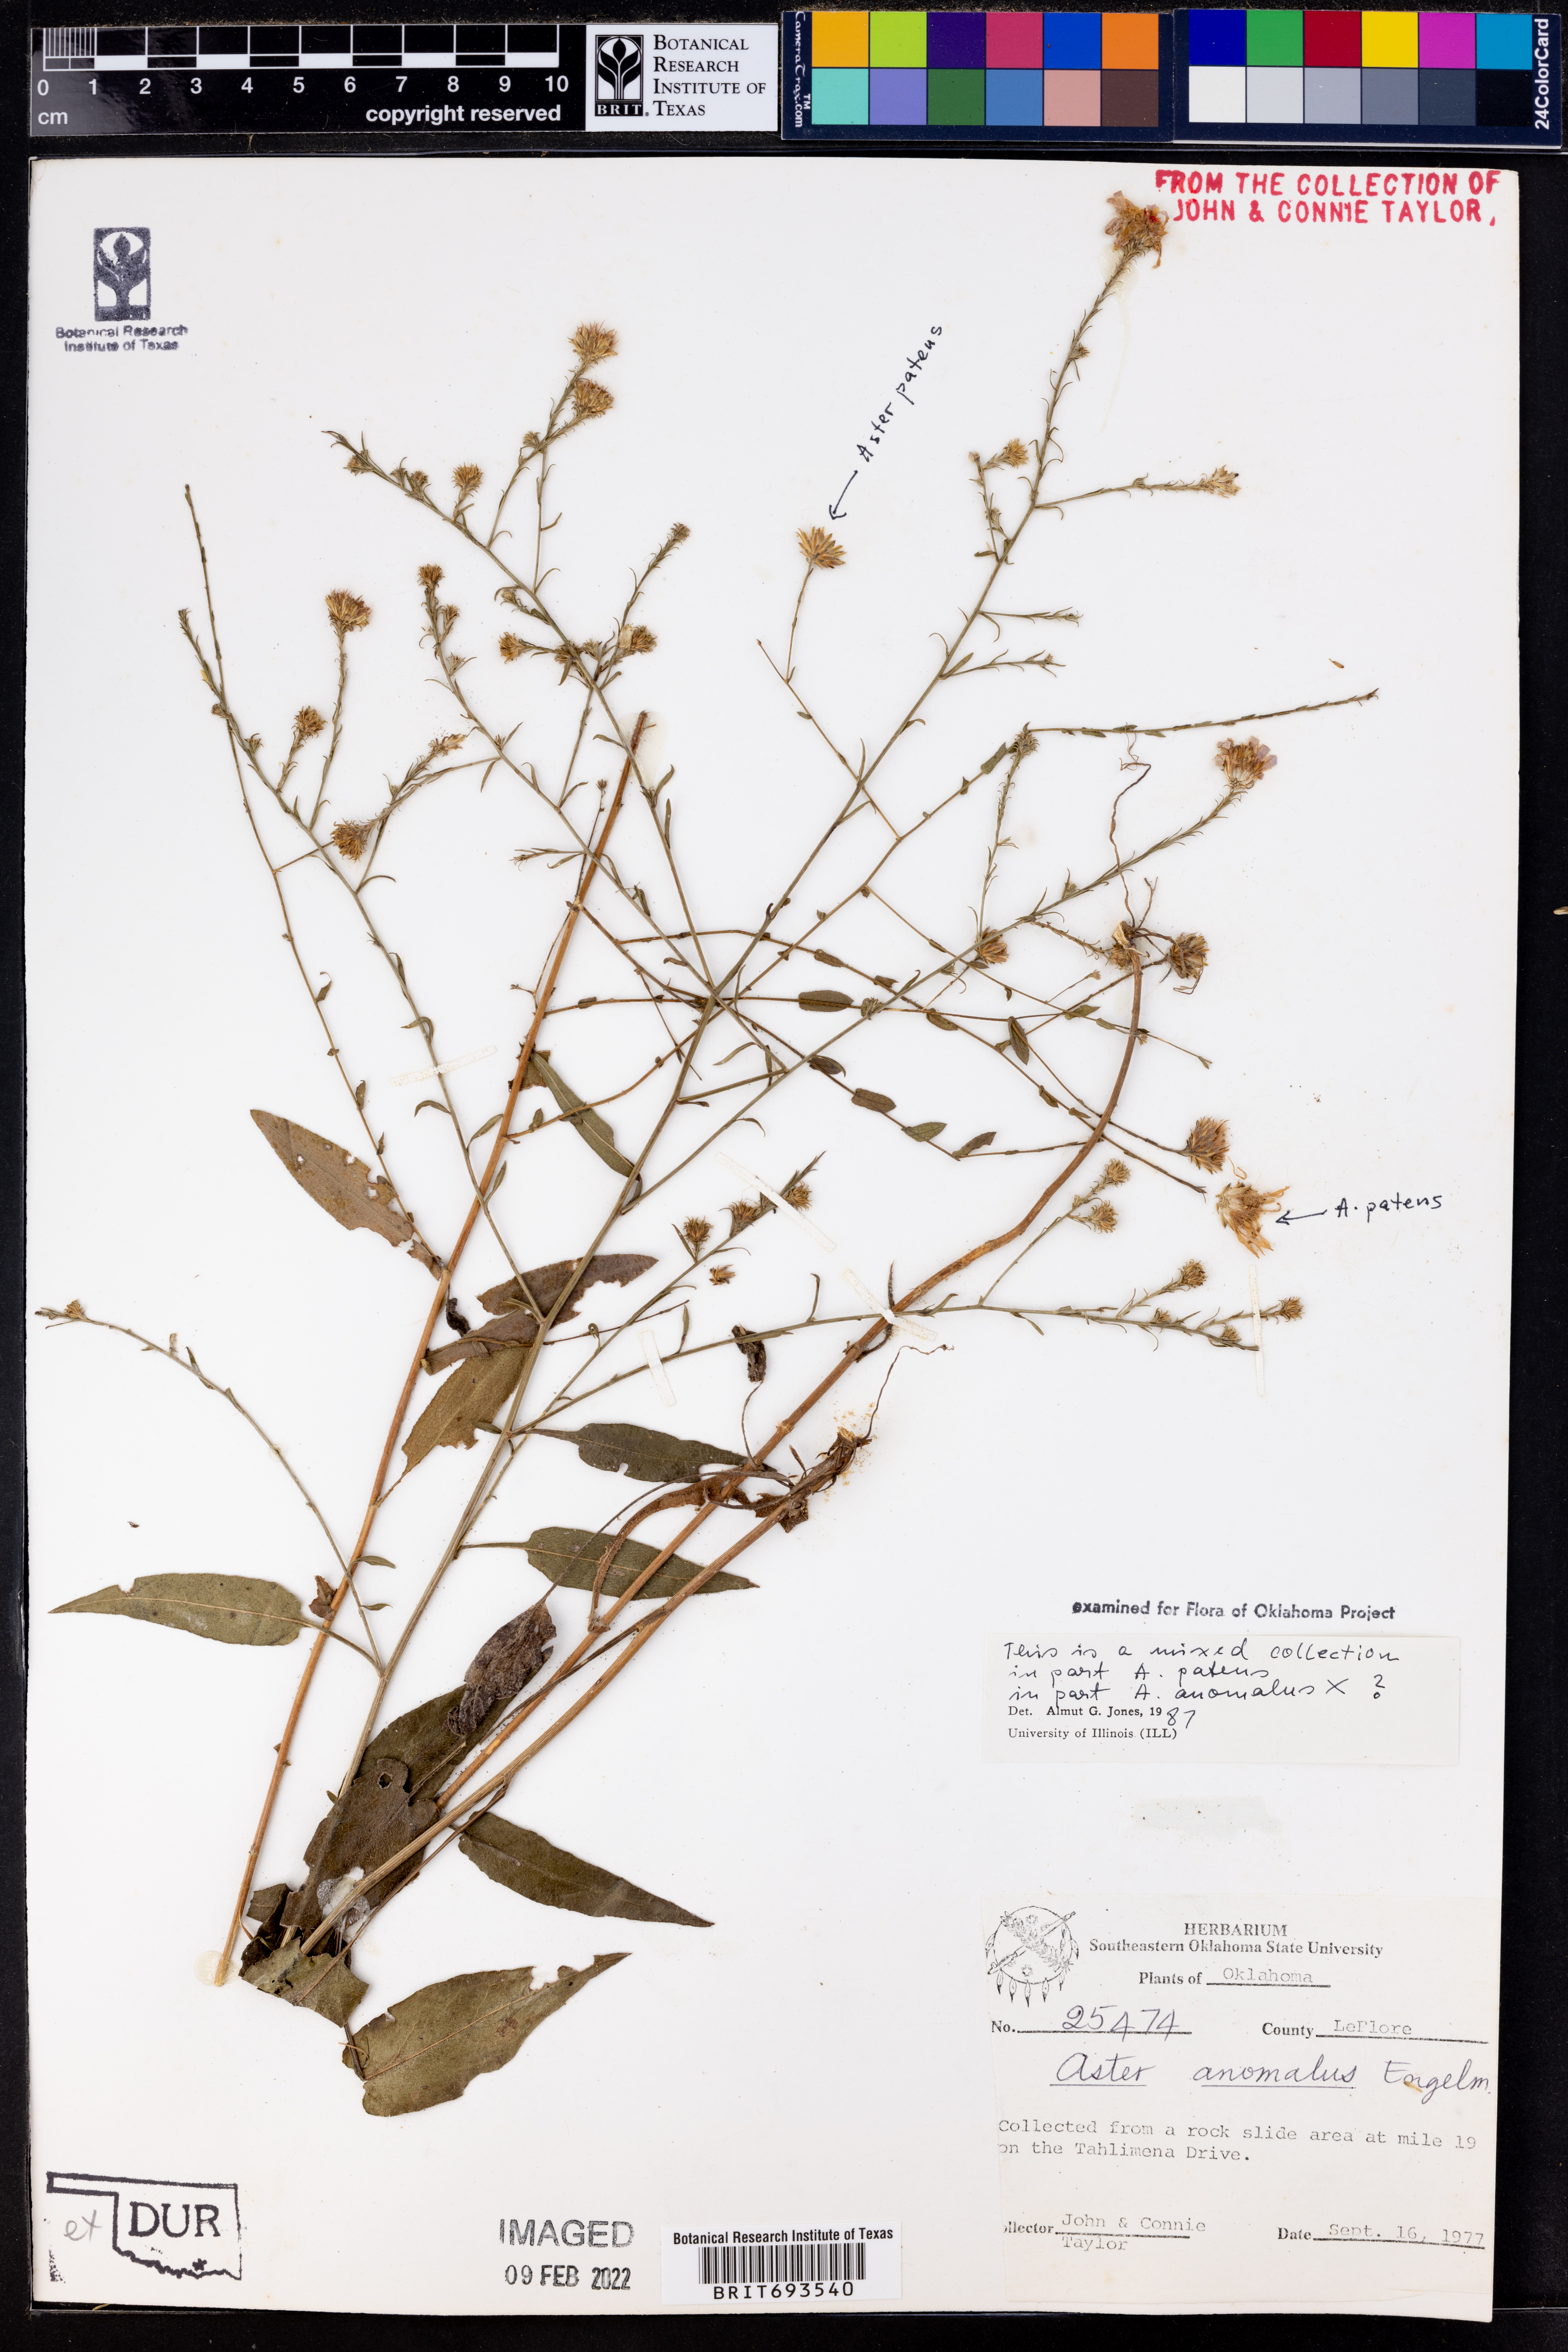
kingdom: Plantae
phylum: Tracheophyta
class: Magnoliopsida
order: Asterales
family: Asteraceae
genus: Symphyotrichum
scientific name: Symphyotrichum anomalum
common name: Many-ray aster
